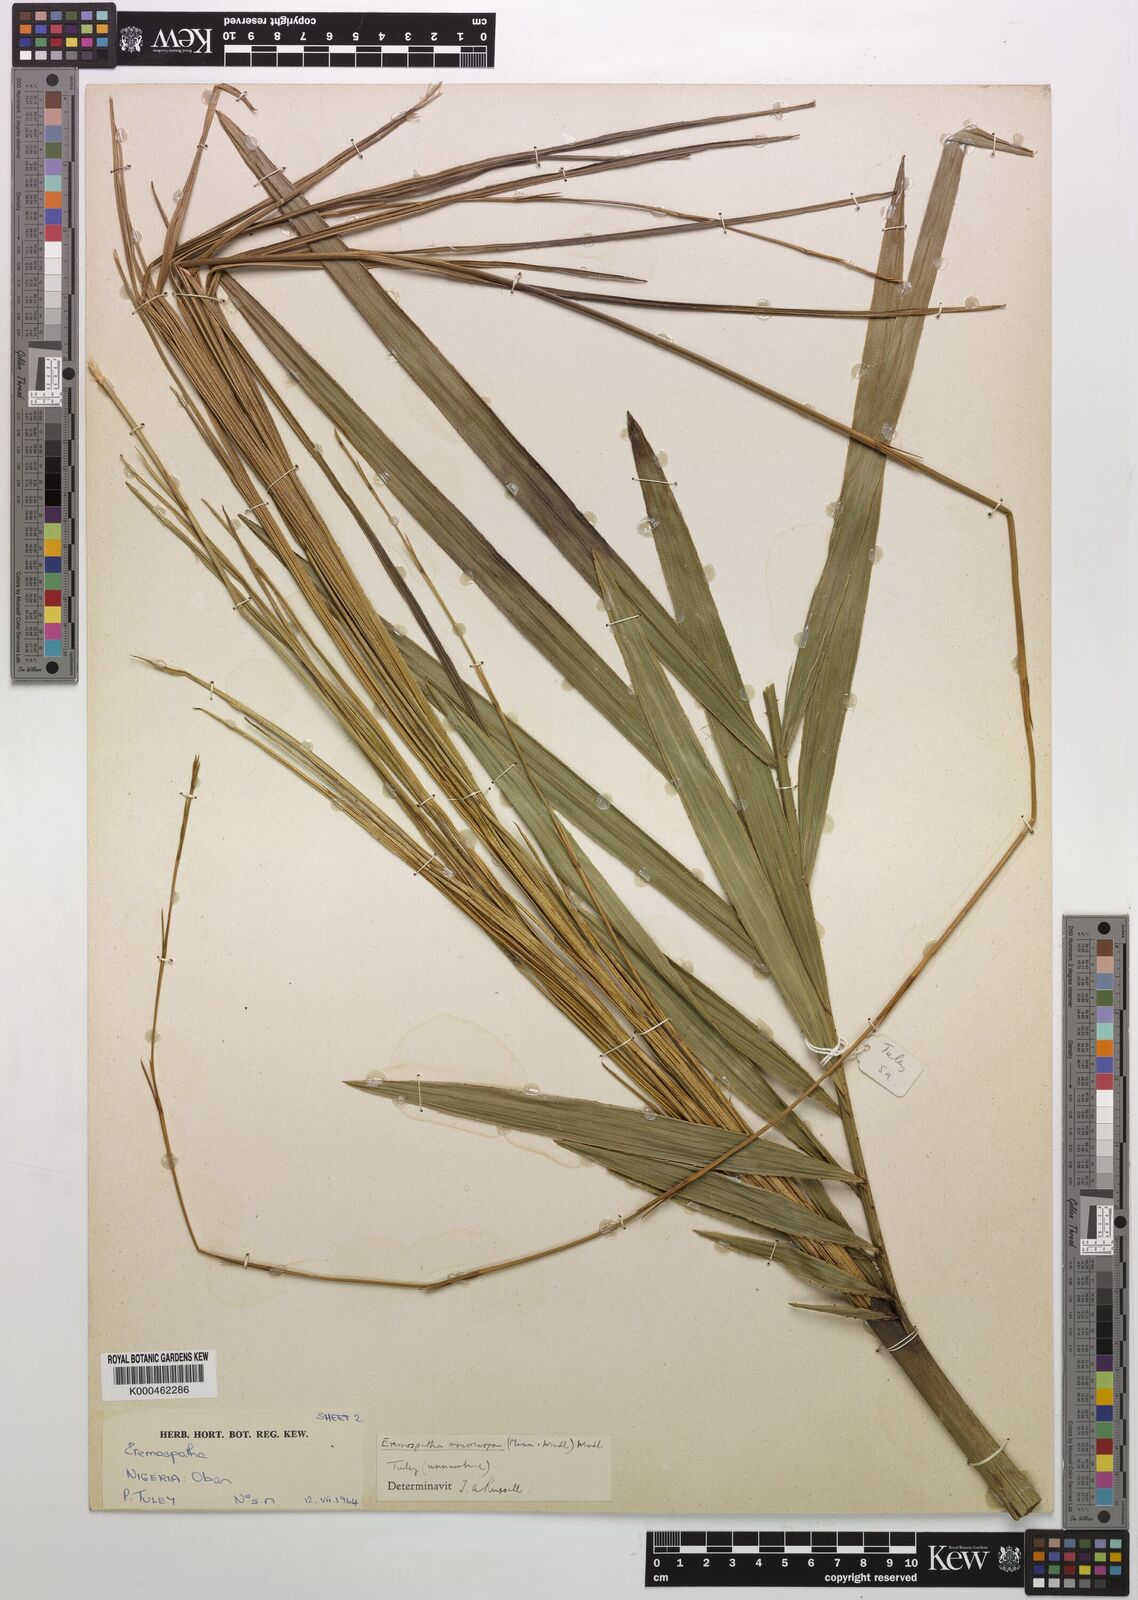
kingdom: Plantae
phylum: Tracheophyta
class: Liliopsida
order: Arecales
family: Arecaceae
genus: Eremospatha
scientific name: Eremospatha
